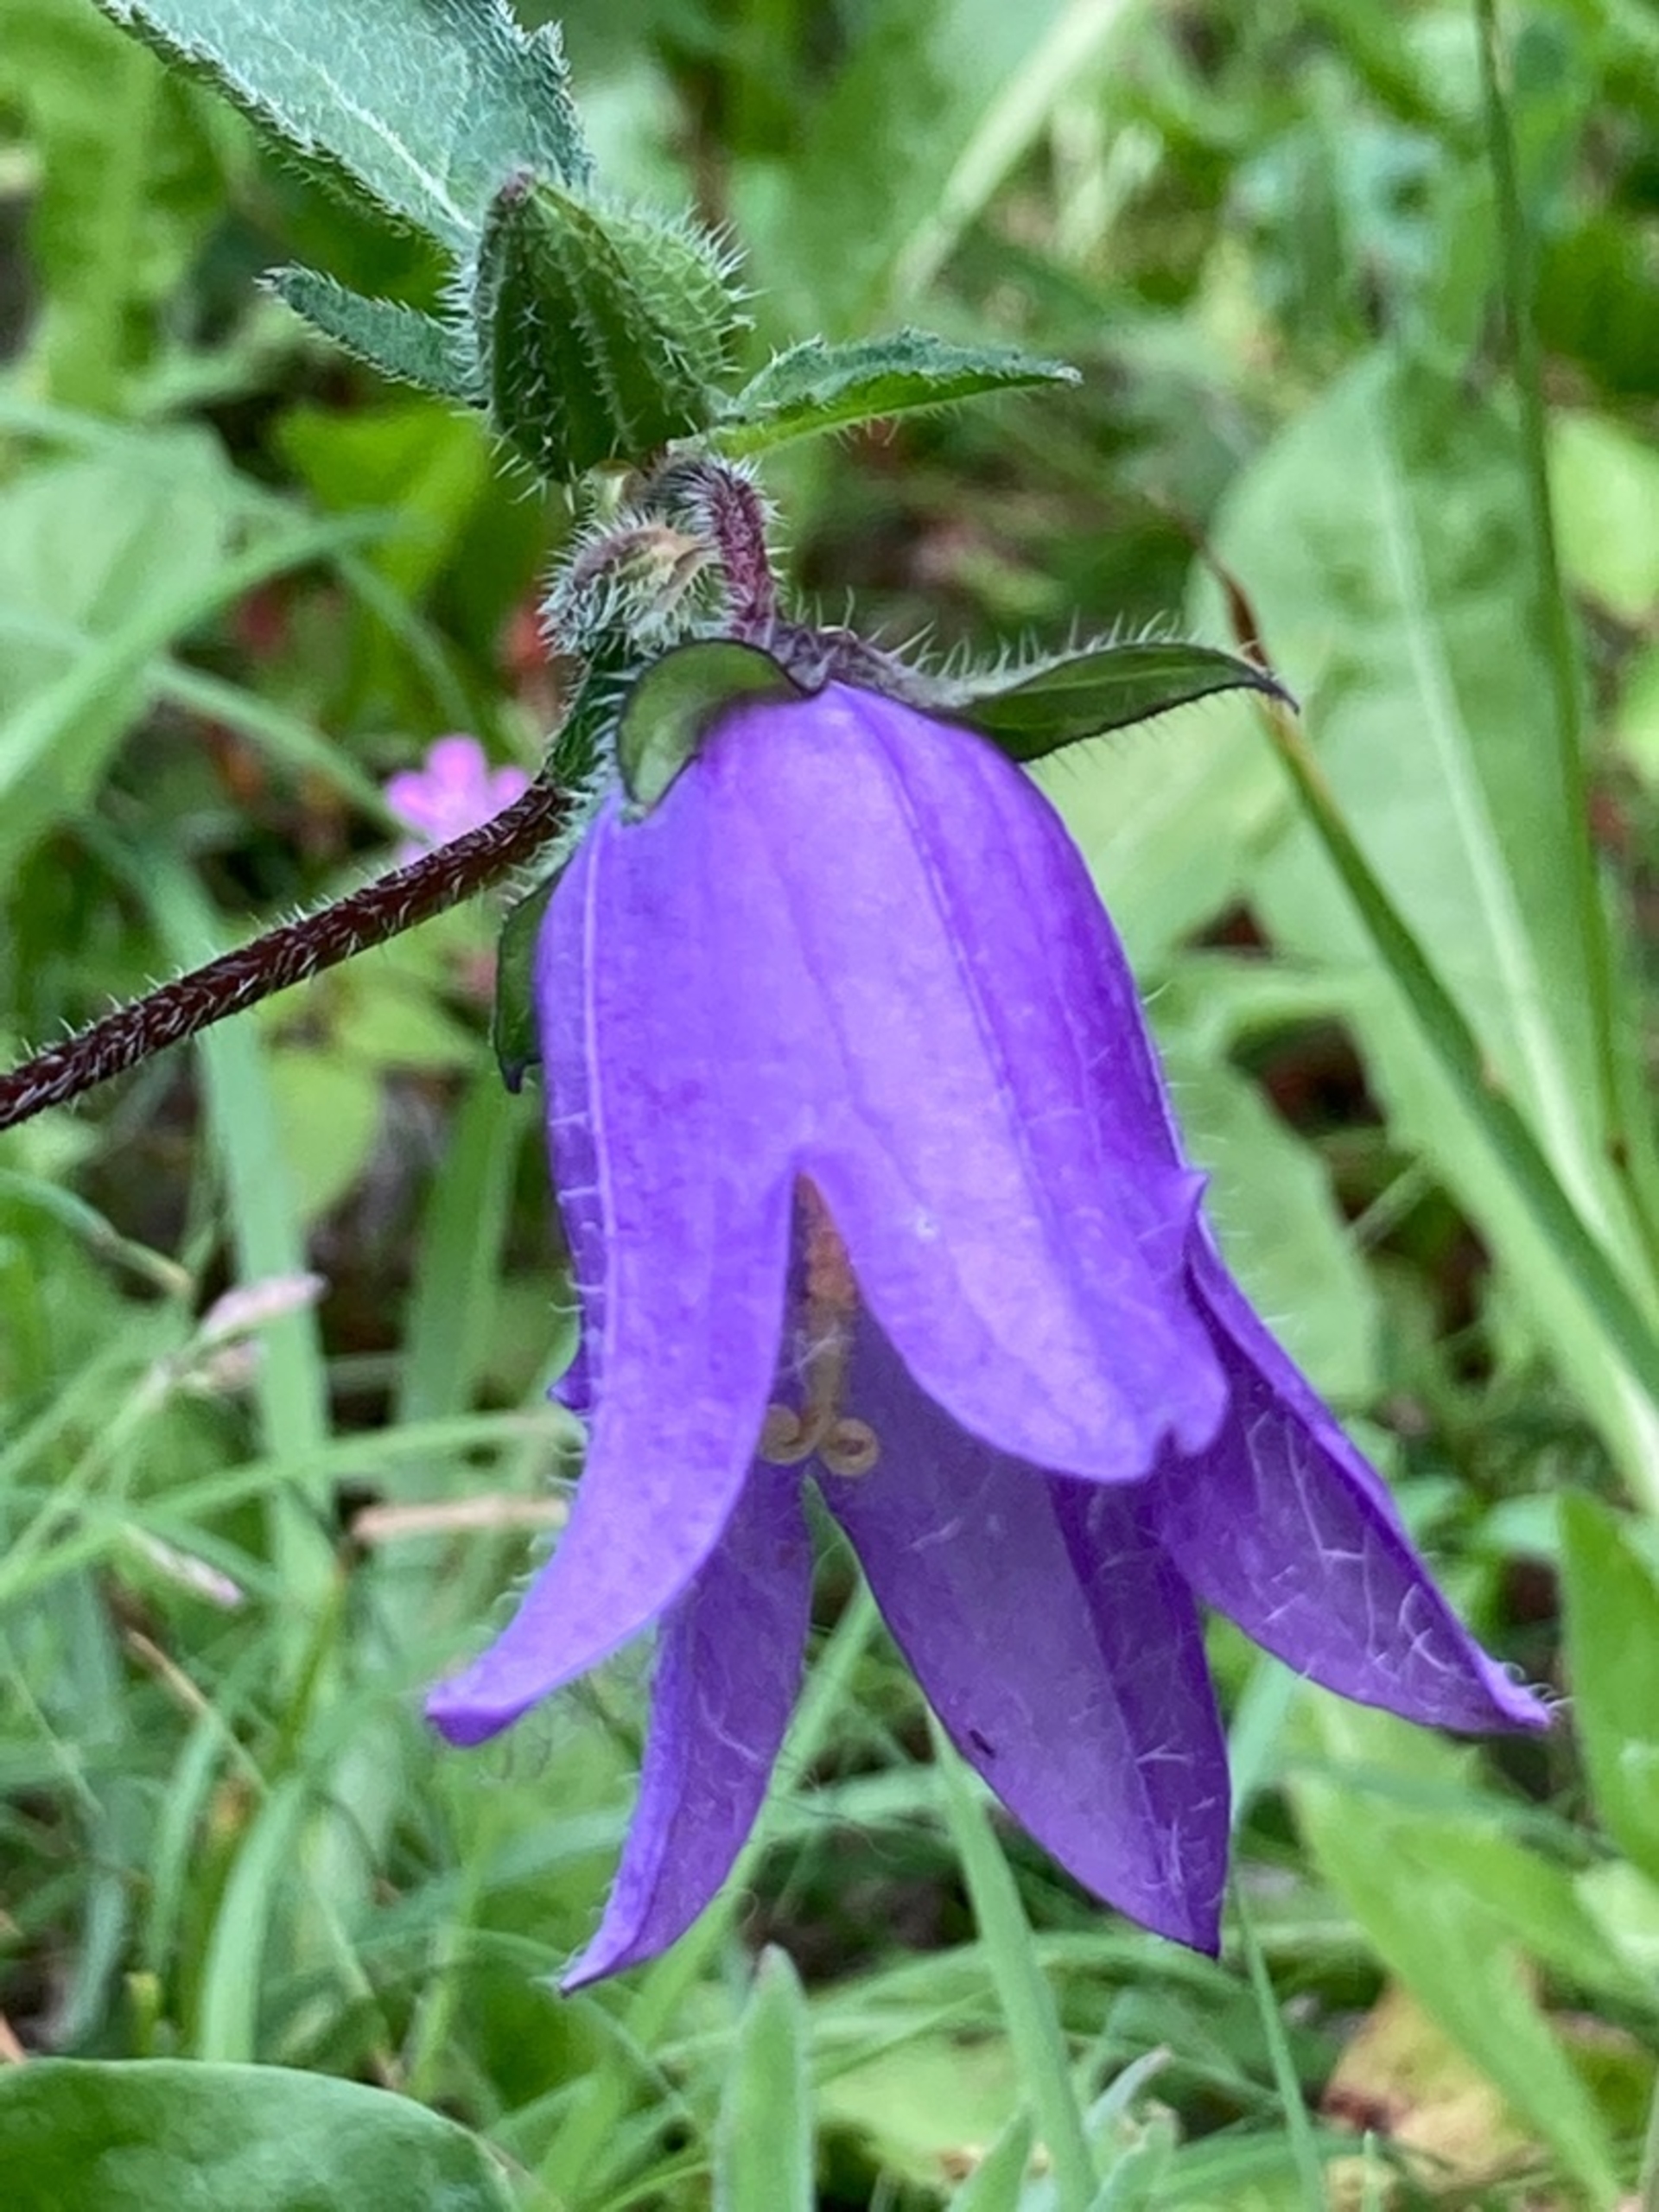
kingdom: Plantae
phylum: Tracheophyta
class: Magnoliopsida
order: Asterales
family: Campanulaceae
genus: Campanula
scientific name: Campanula trachelium
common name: Nælde-klokke
